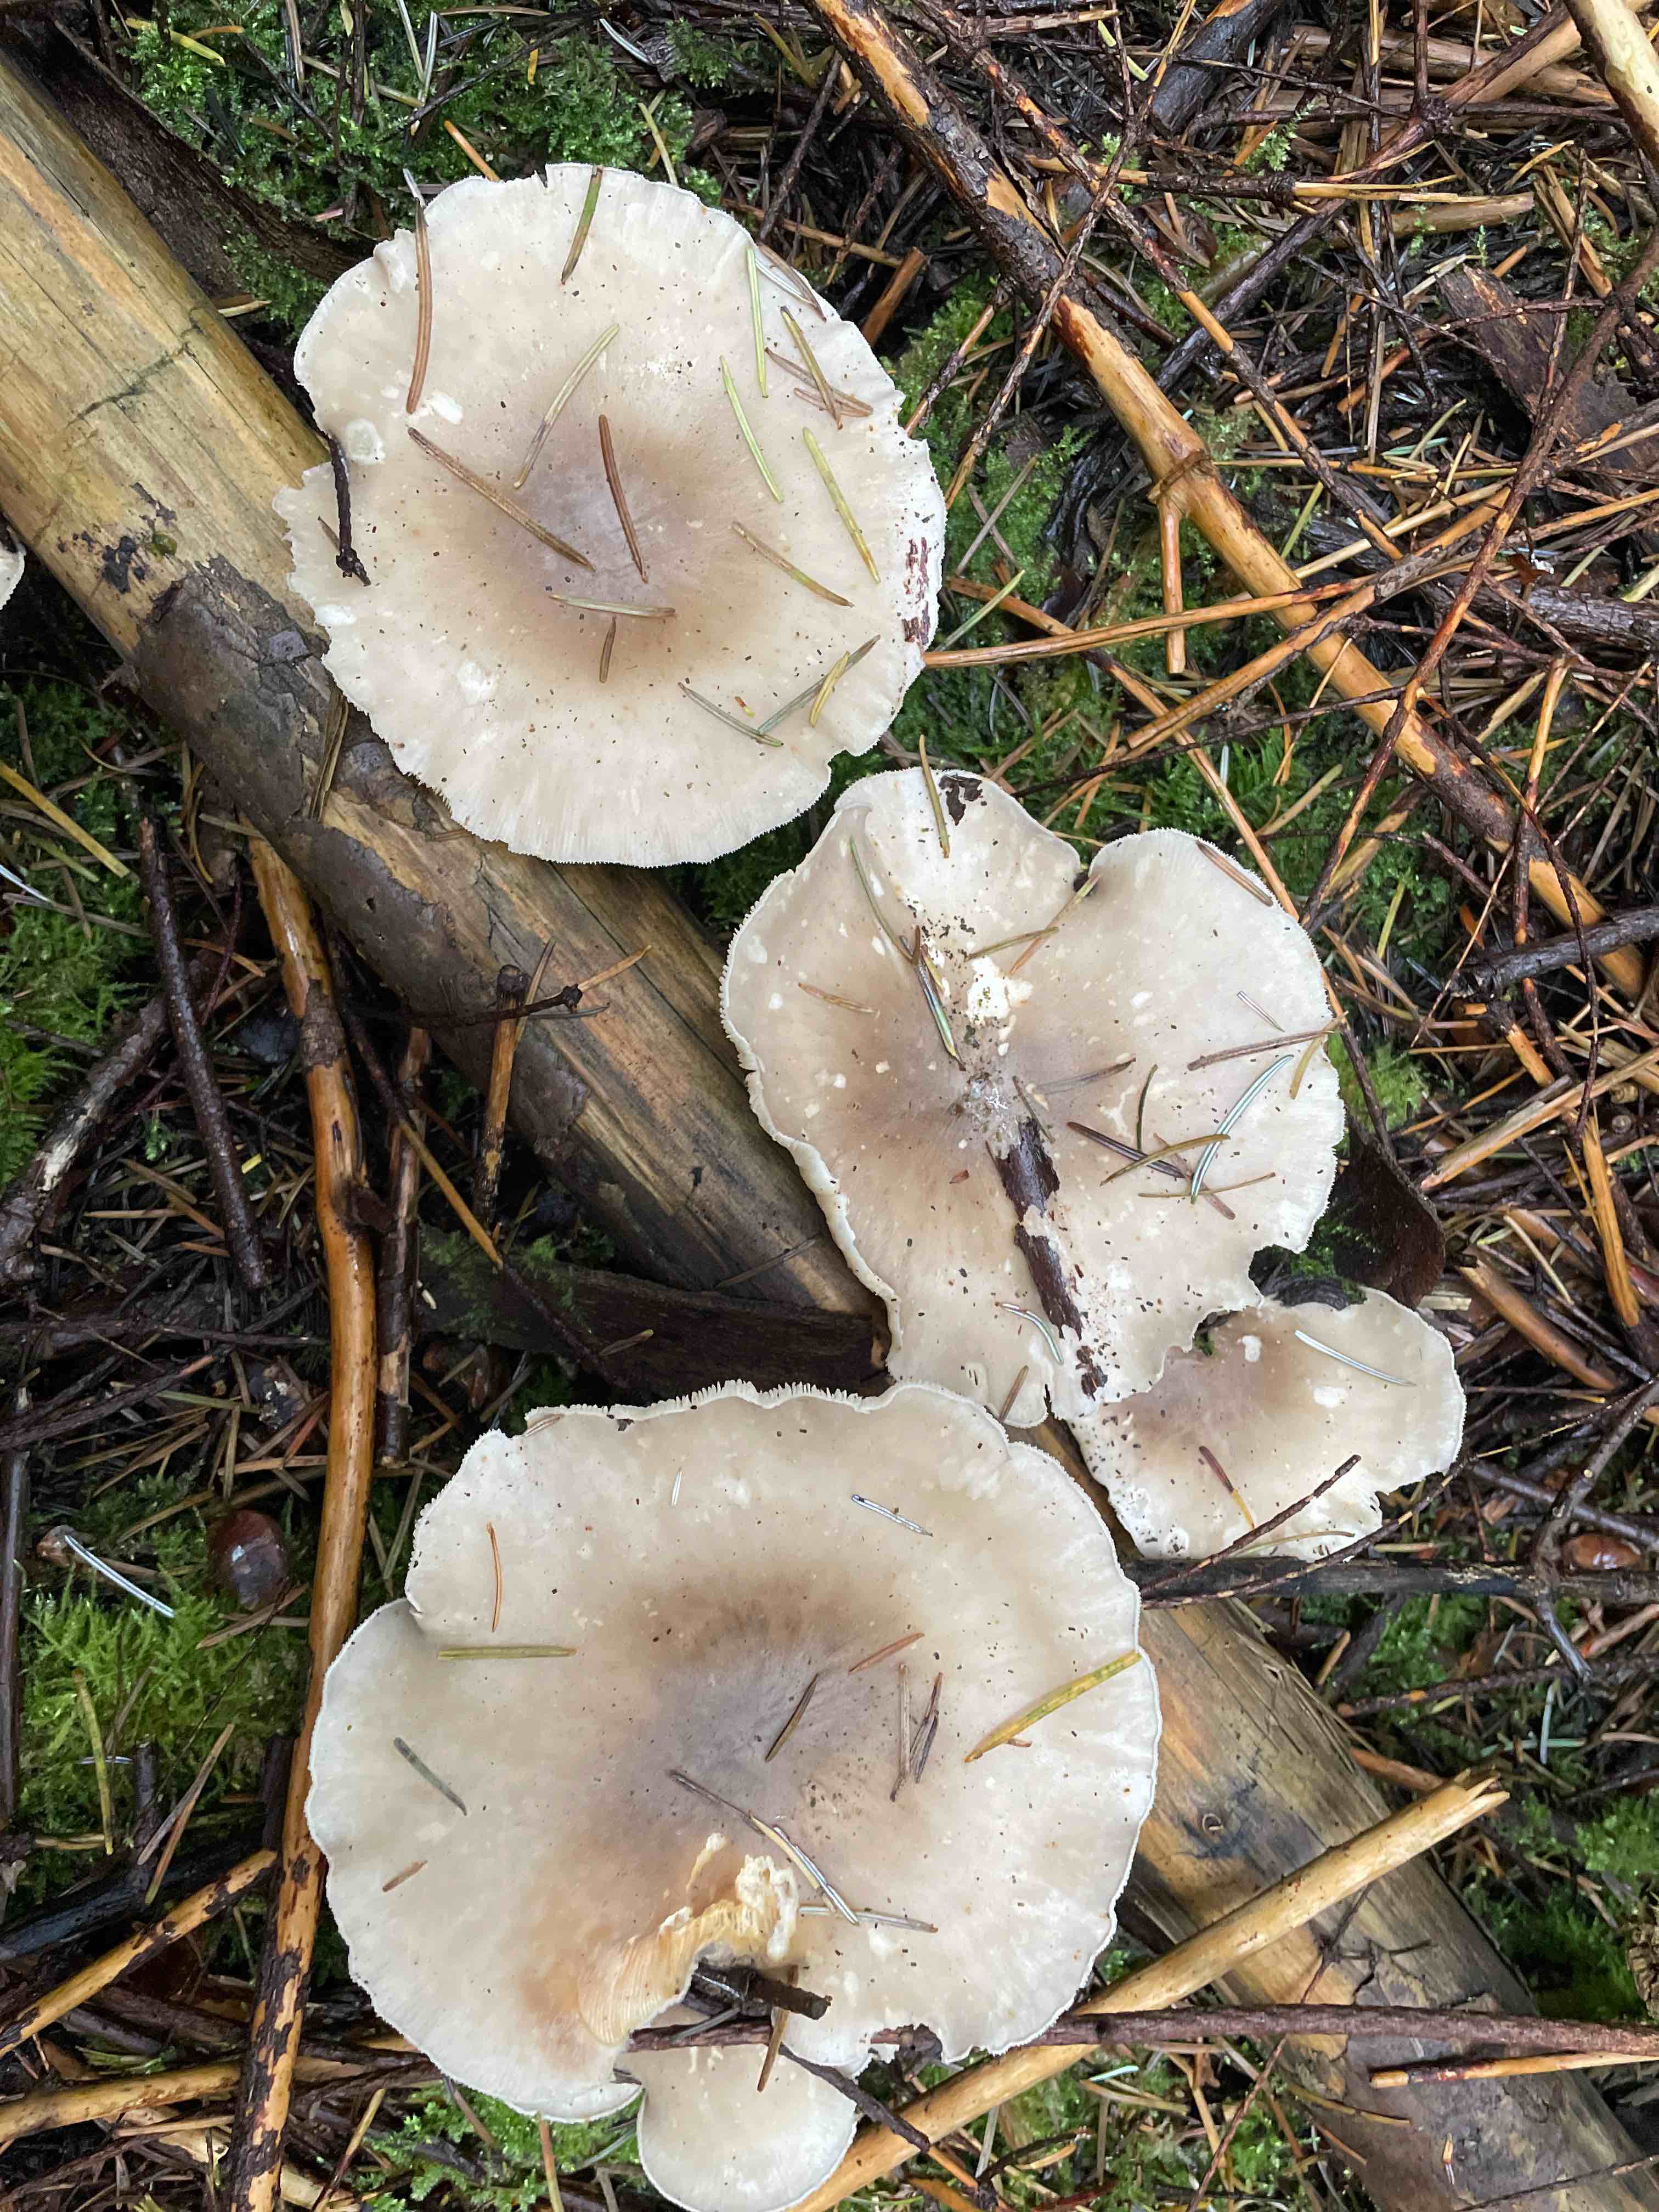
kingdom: Fungi
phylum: Basidiomycota
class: Agaricomycetes
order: Agaricales
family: Tricholomataceae
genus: Clitocybe
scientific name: Clitocybe nebularis
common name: tåge-tragthat
